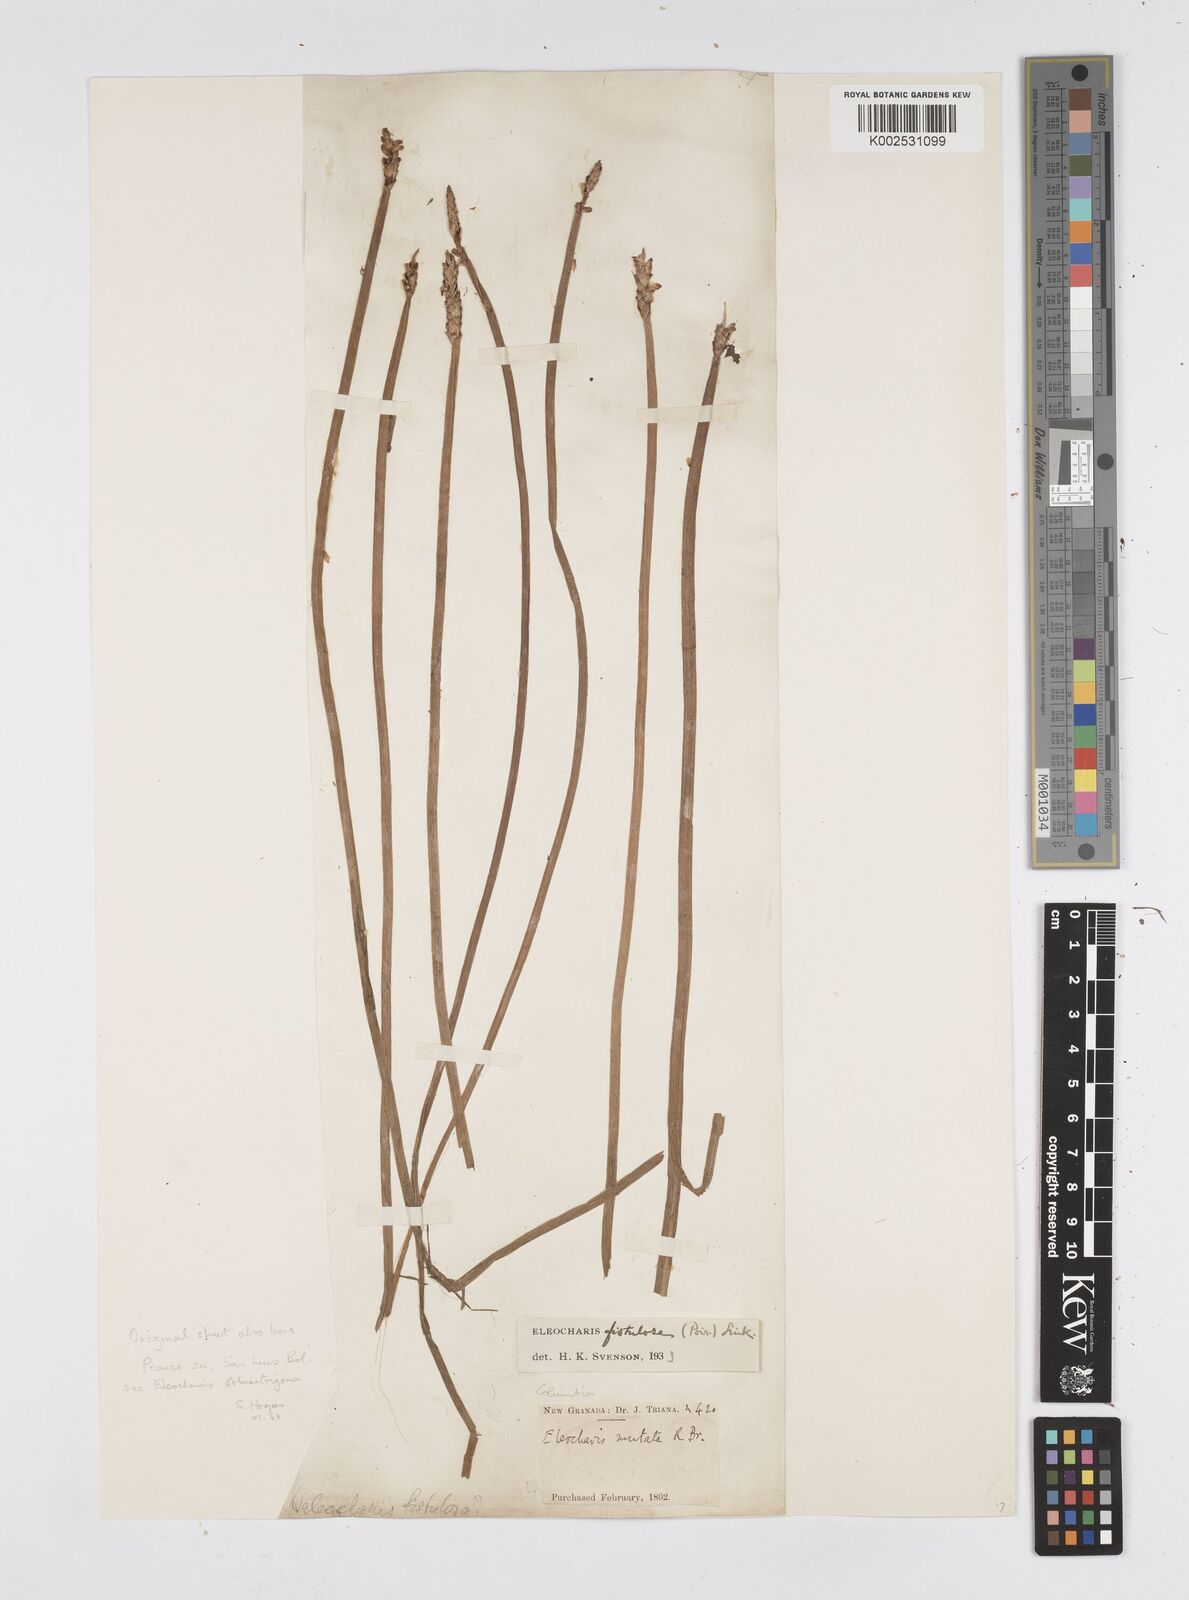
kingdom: Plantae
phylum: Tracheophyta
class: Liliopsida
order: Poales
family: Cyperaceae
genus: Eleocharis
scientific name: Eleocharis acutangula
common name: Acute spikerush
